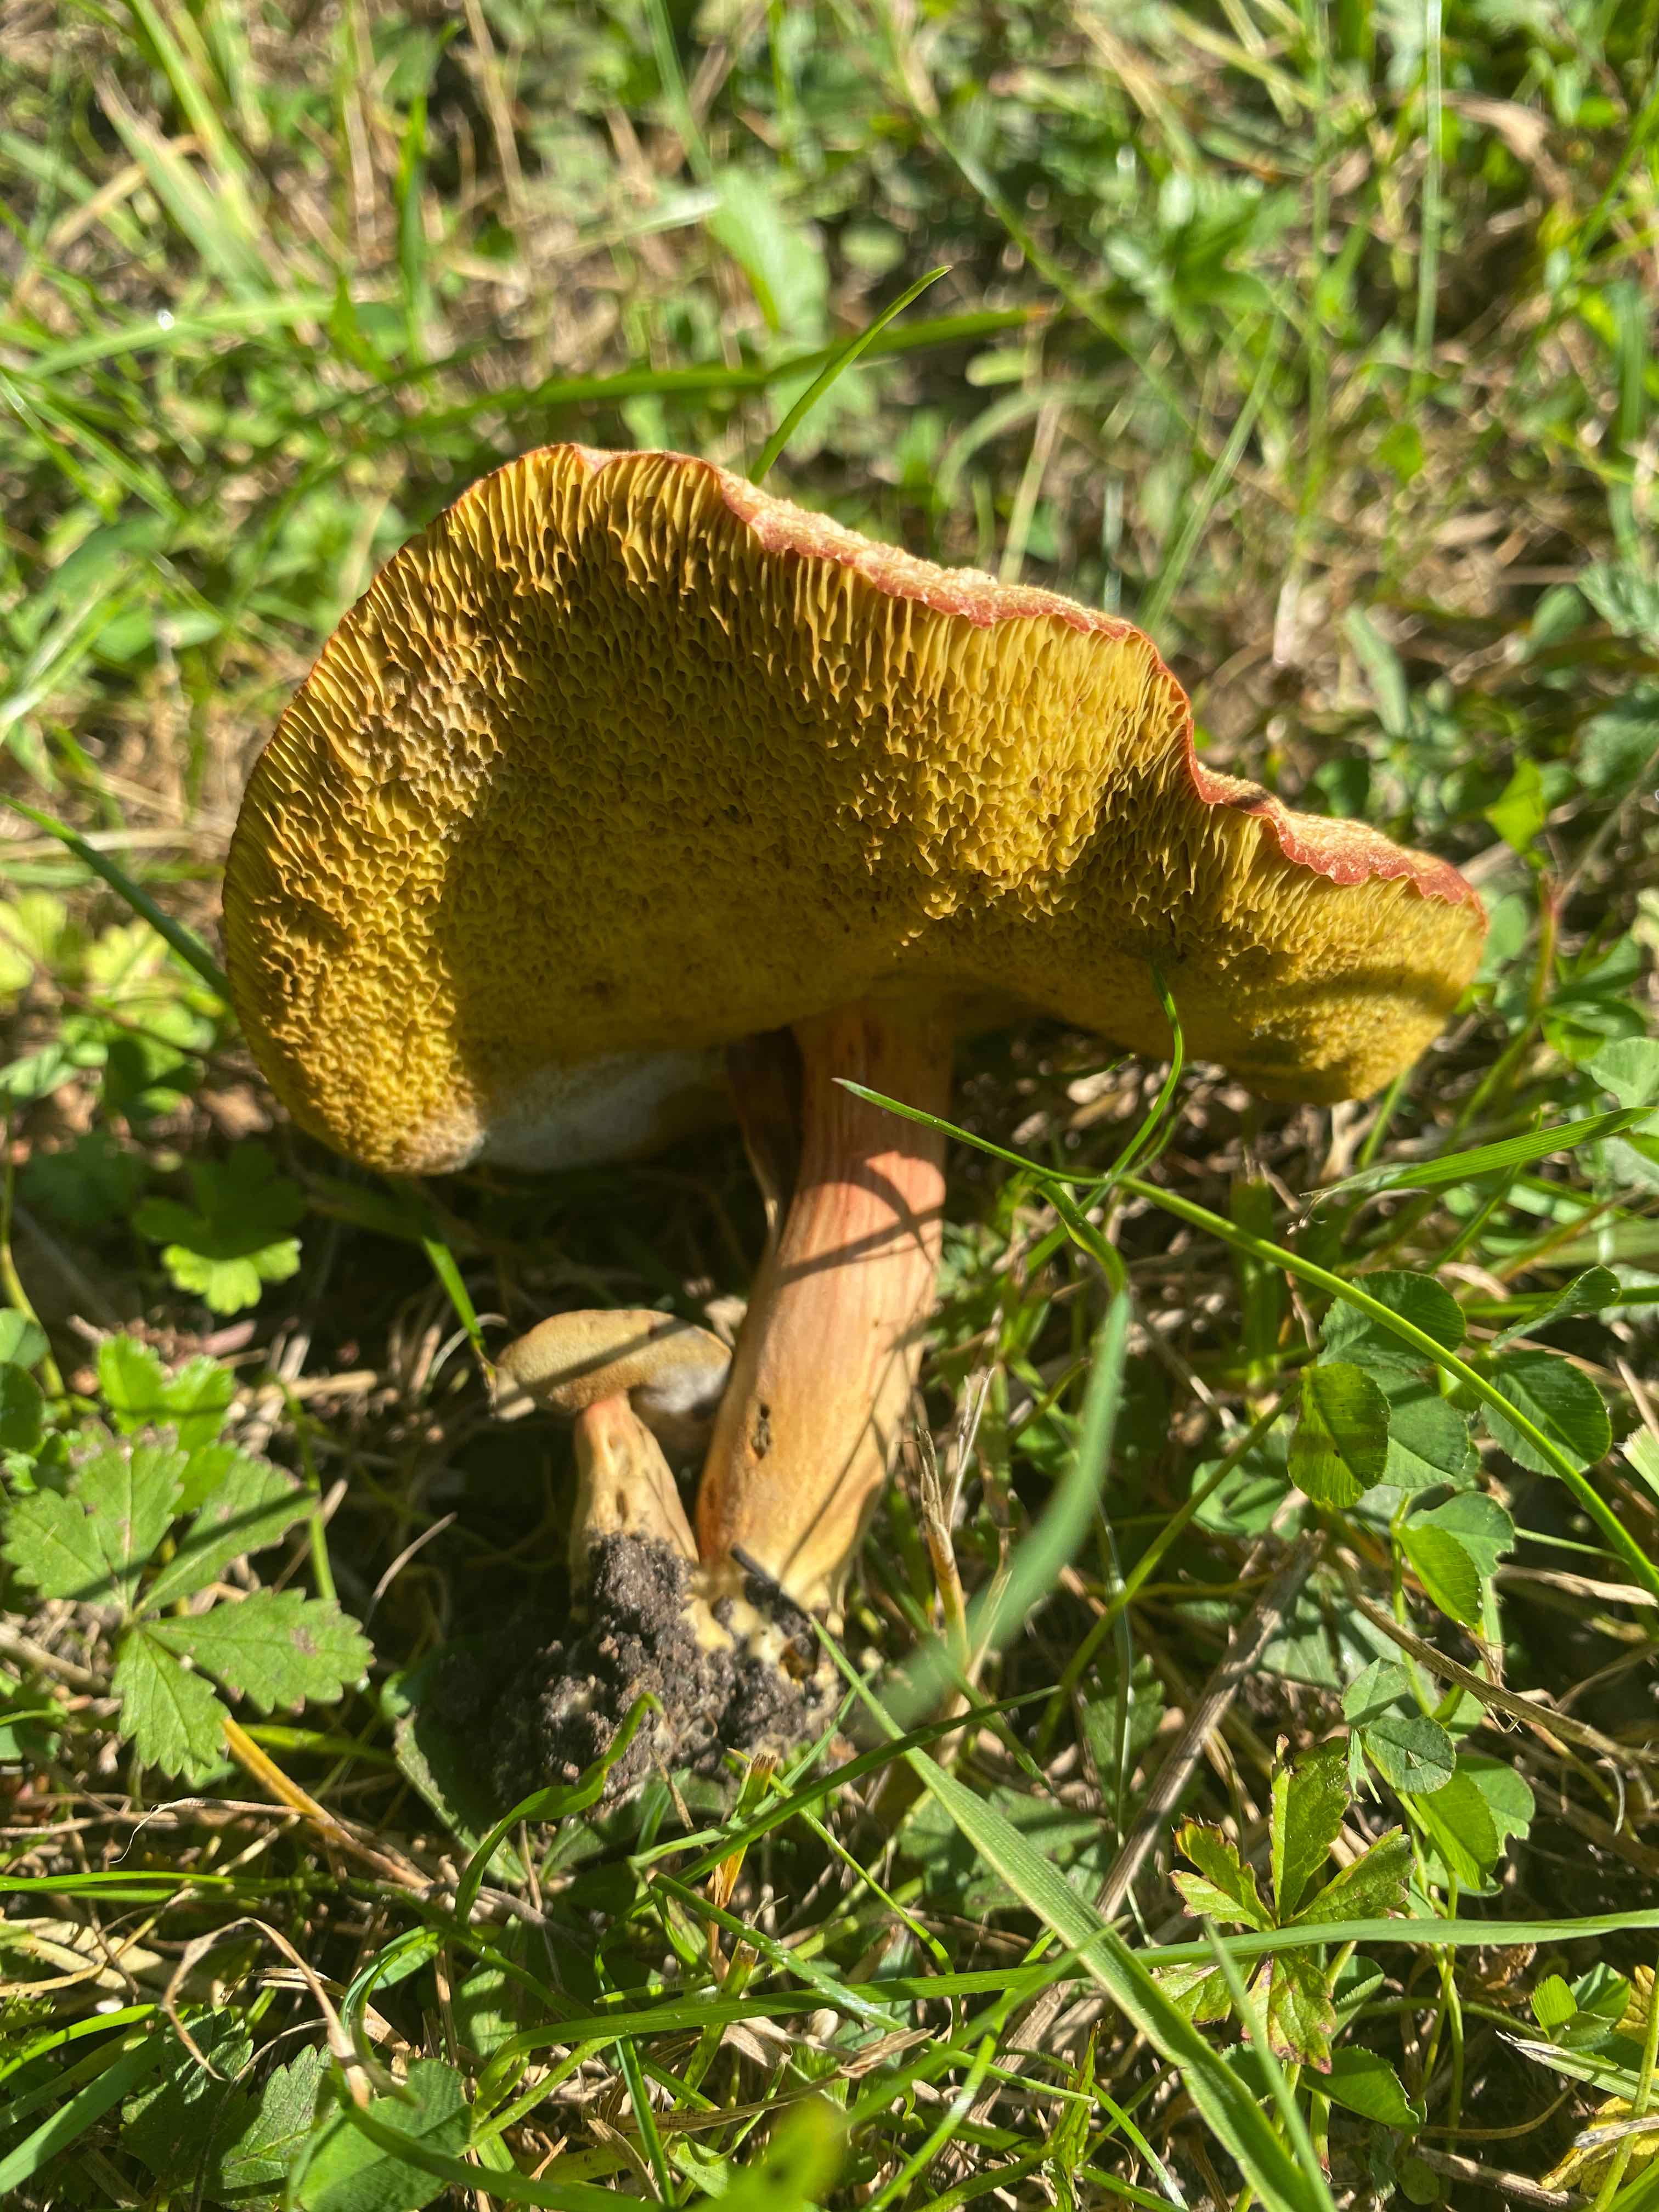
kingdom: Fungi
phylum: Basidiomycota
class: Agaricomycetes
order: Boletales
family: Boletaceae
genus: Hortiboletus
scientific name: Hortiboletus
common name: dværgrørhat
